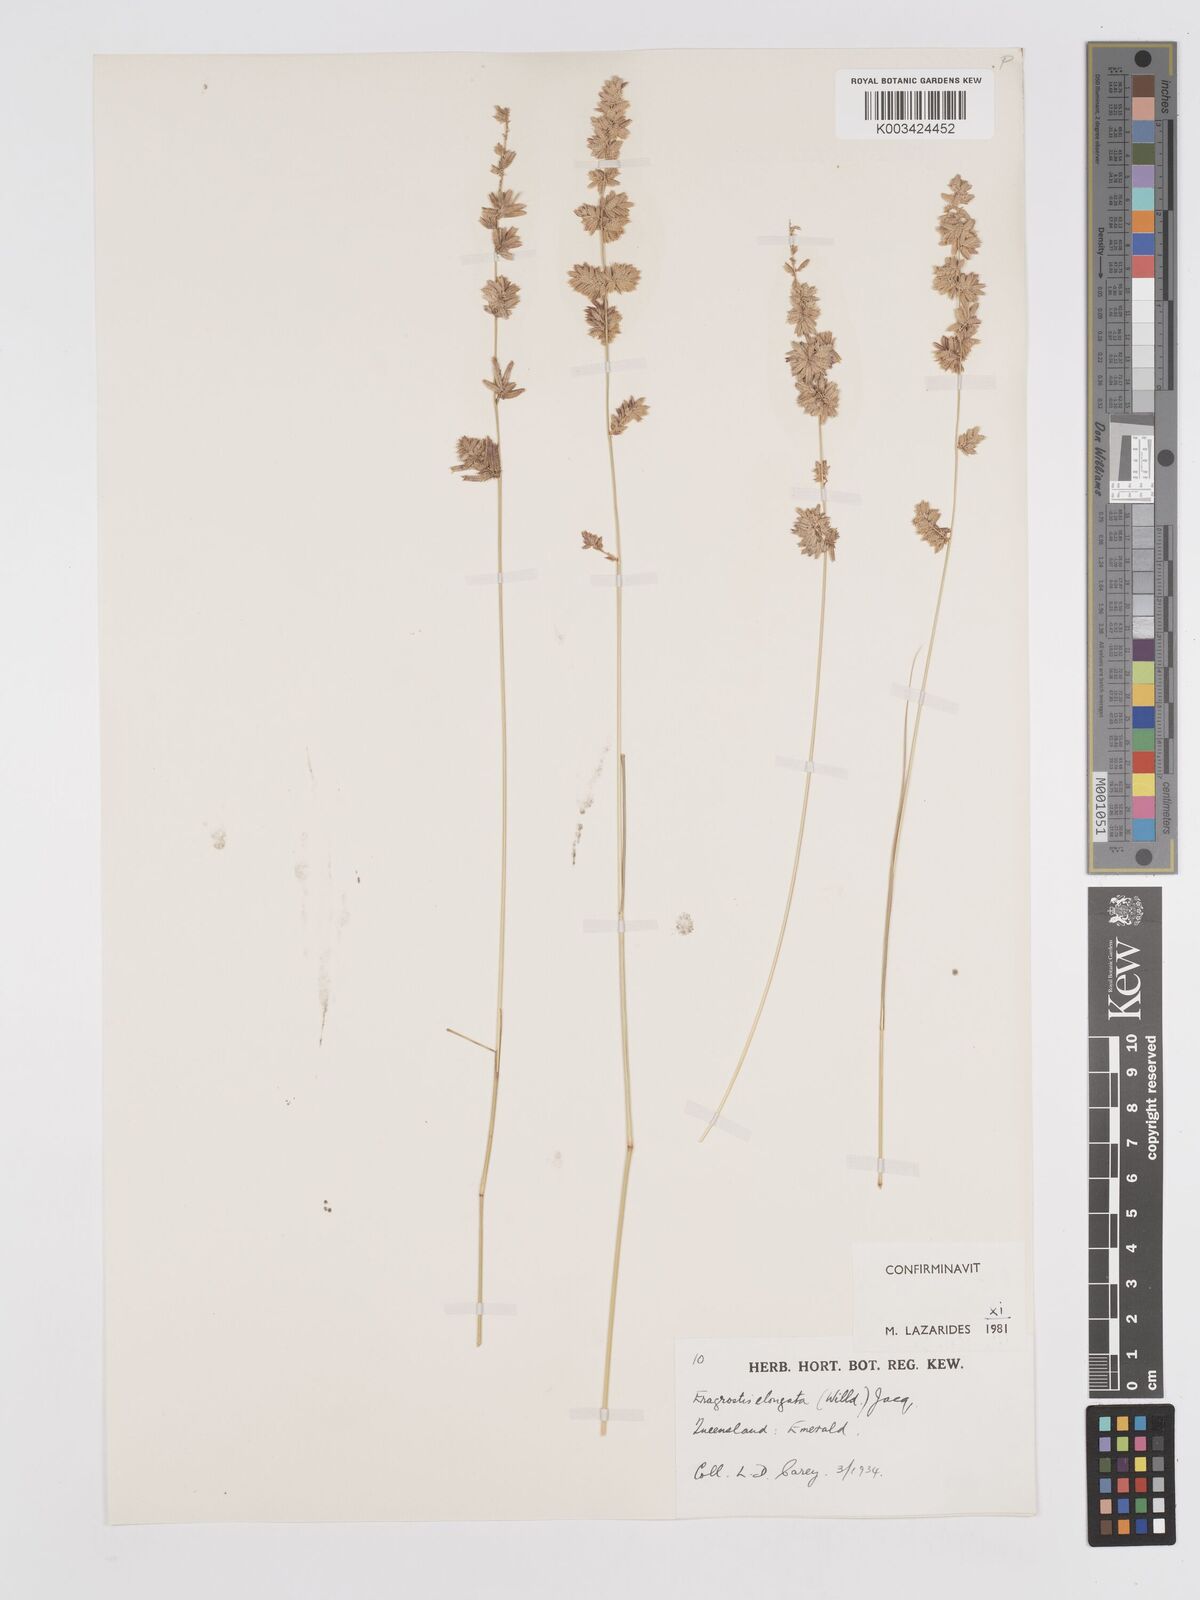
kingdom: Plantae
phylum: Tracheophyta
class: Liliopsida
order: Poales
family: Poaceae
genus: Eragrostis
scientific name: Eragrostis elongata
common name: Long lovegrass
